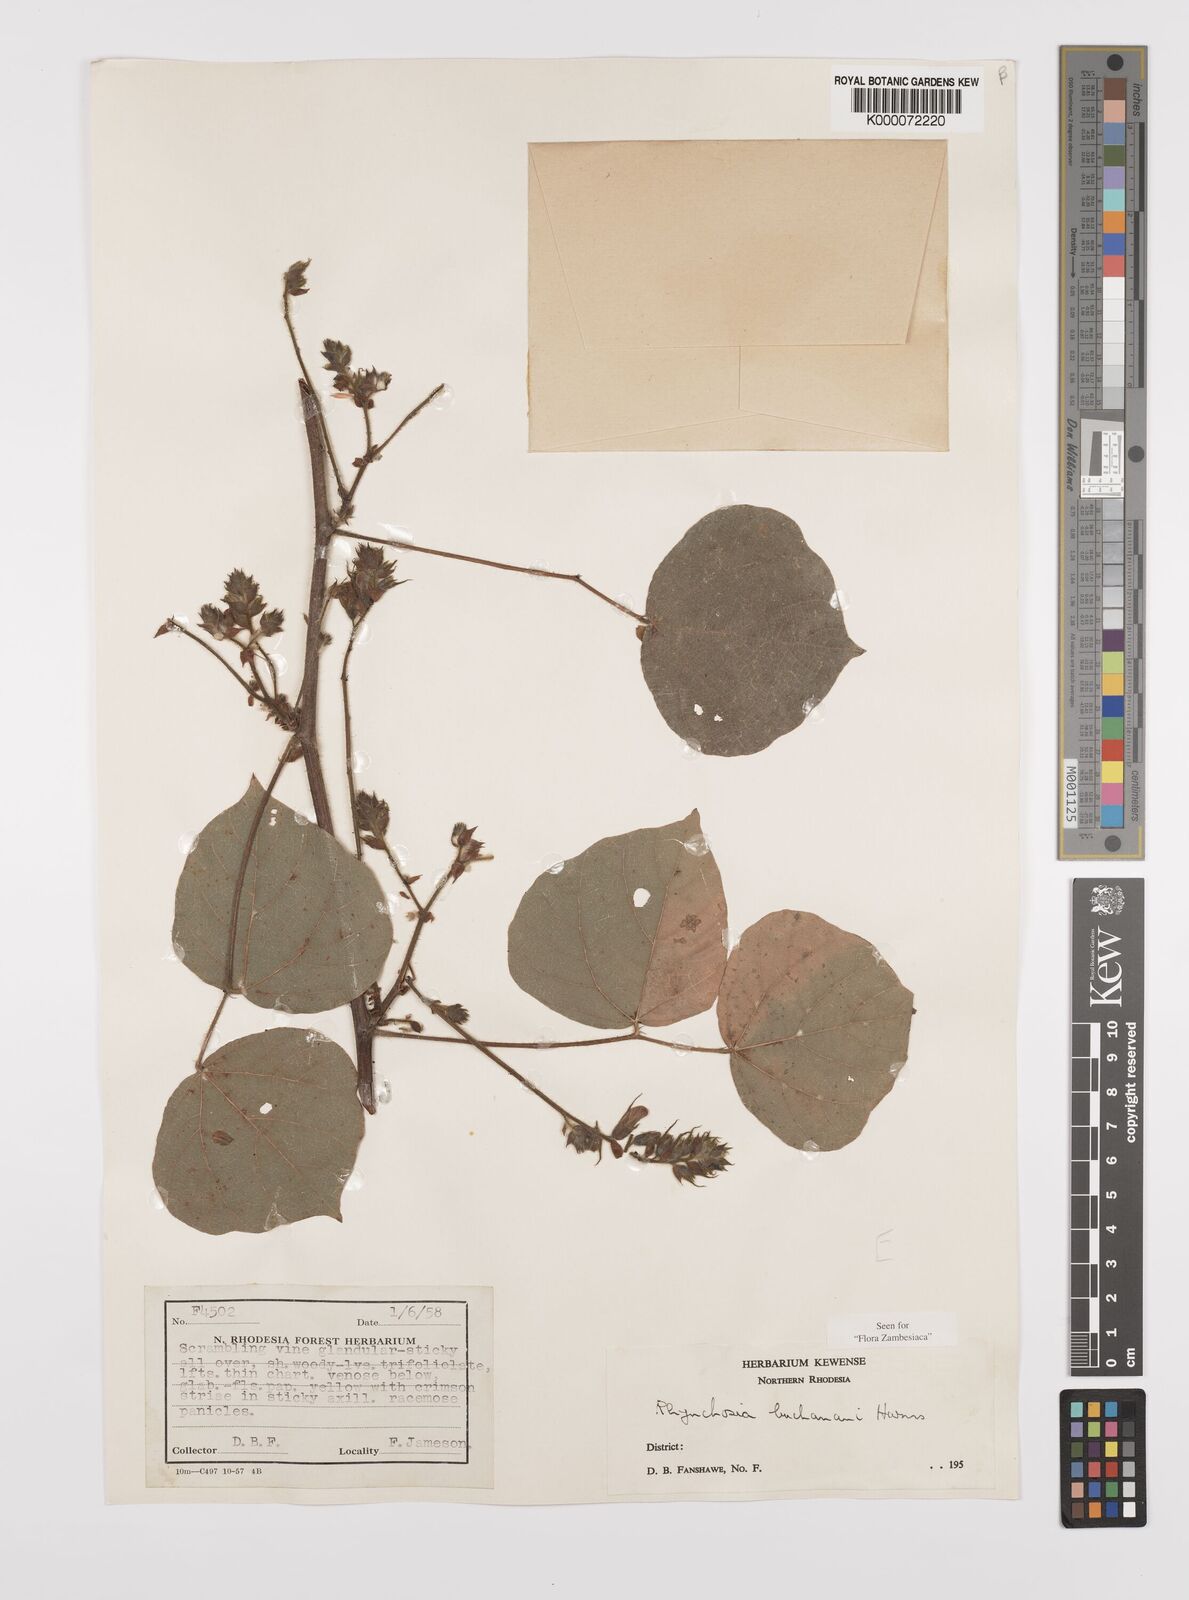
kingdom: Plantae
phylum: Tracheophyta
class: Magnoliopsida
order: Fabales
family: Fabaceae
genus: Rhynchosia
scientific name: Rhynchosia buchananii
